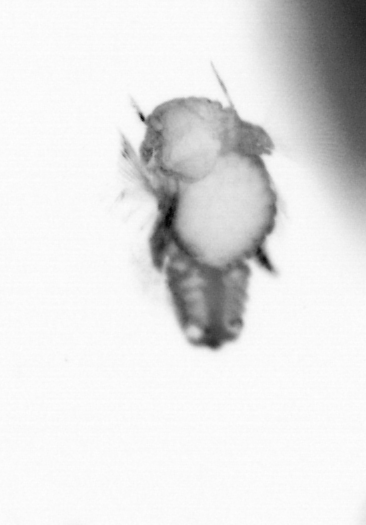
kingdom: Animalia
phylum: Annelida
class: Polychaeta
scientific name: Polychaeta
